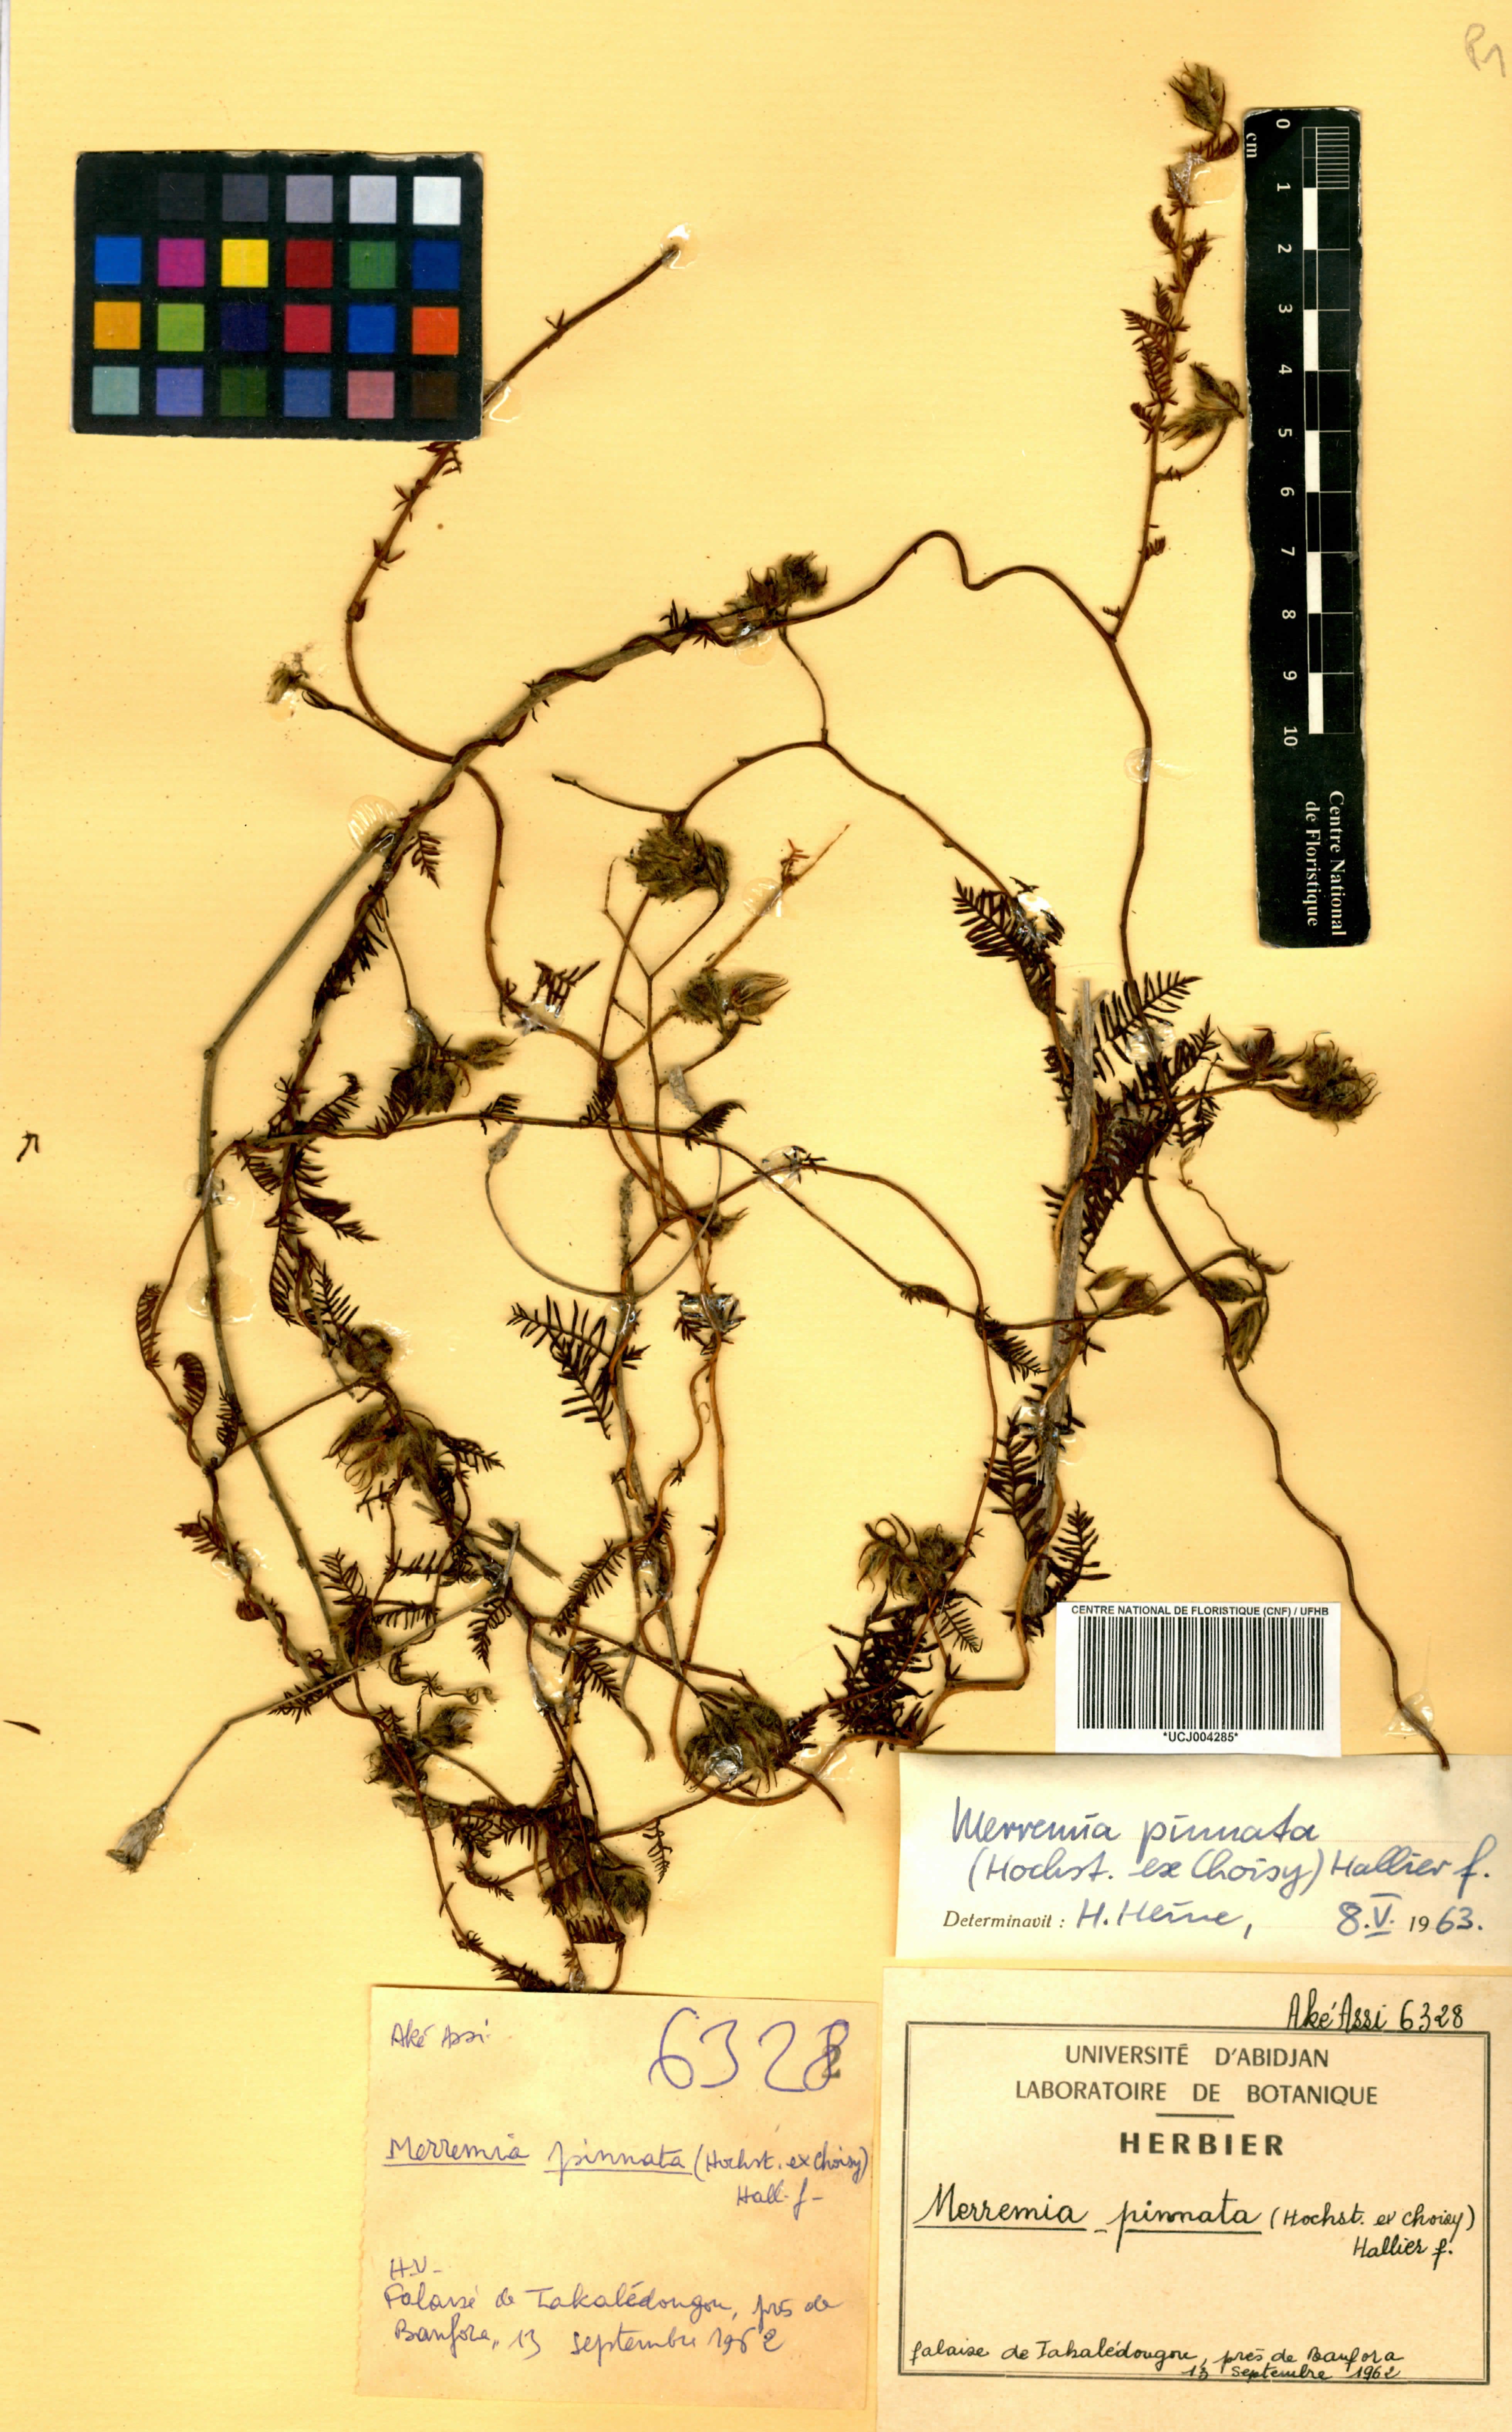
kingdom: Plantae
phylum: Tracheophyta
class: Magnoliopsida
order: Solanales
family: Convolvulaceae
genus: Xenostegia
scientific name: Xenostegia pinnata
